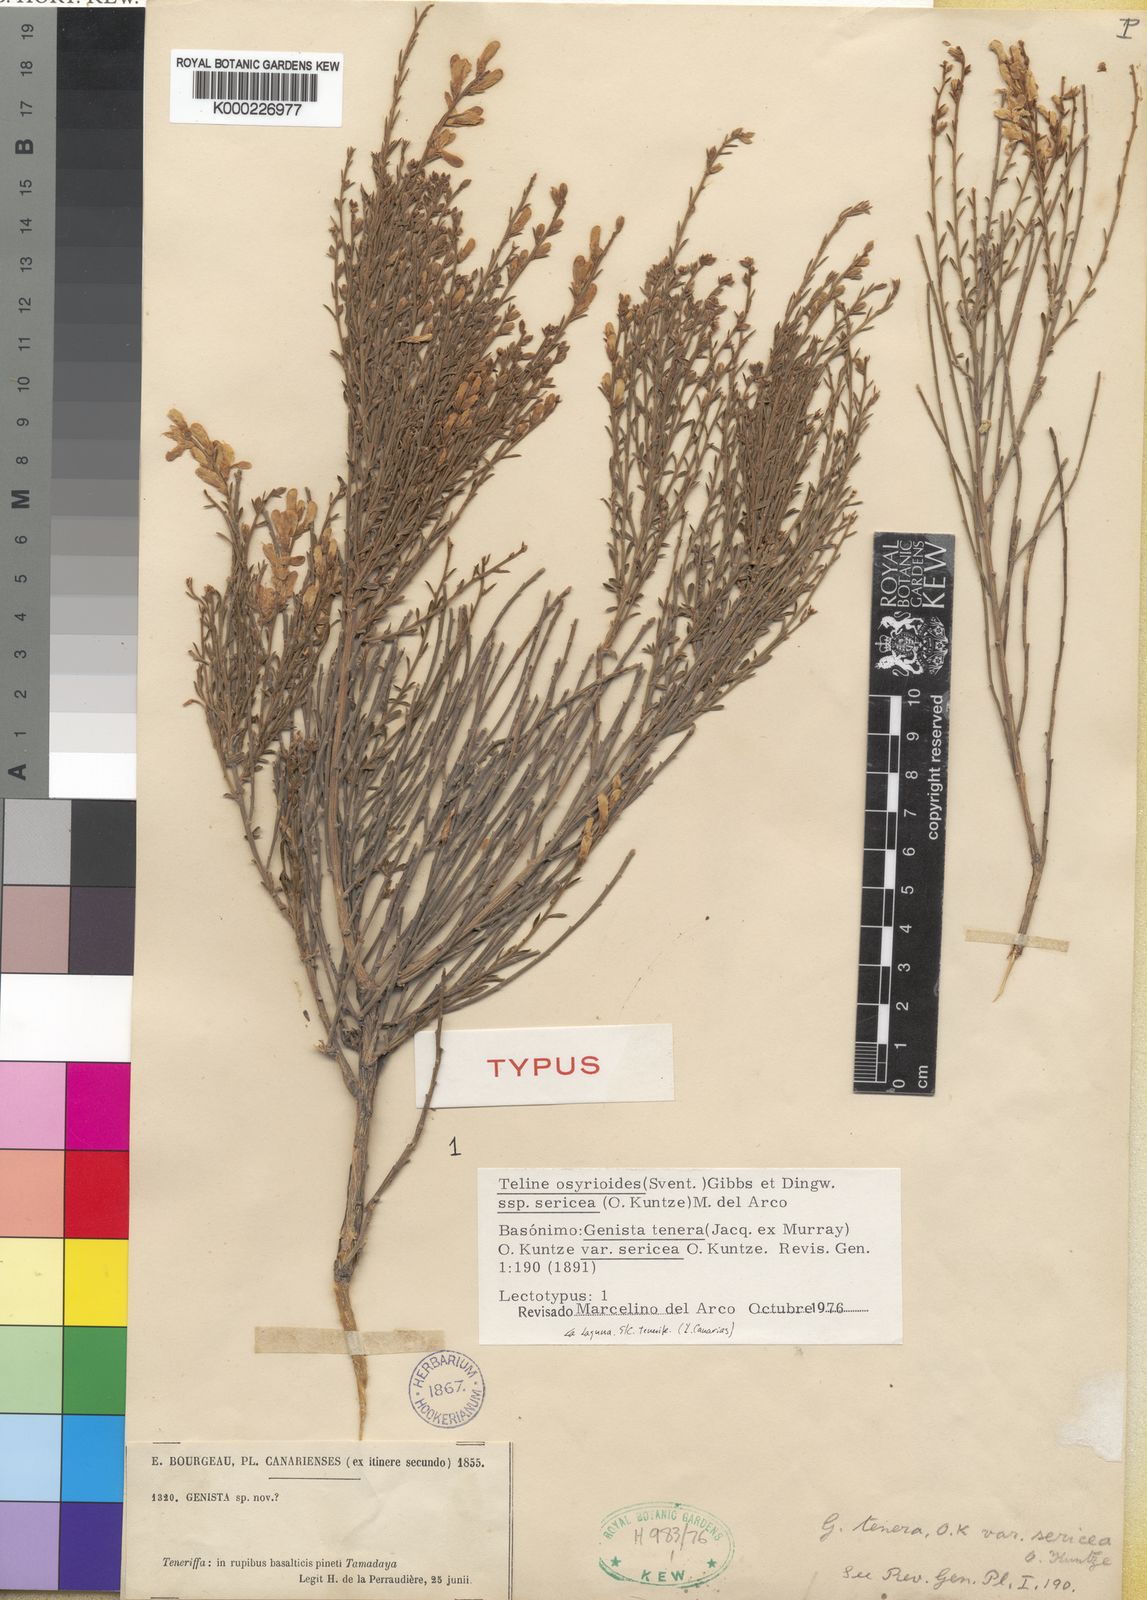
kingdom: Plantae
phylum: Tracheophyta
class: Magnoliopsida
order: Fabales
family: Fabaceae
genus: Genista
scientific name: Genista tenera
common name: Madeira broom
